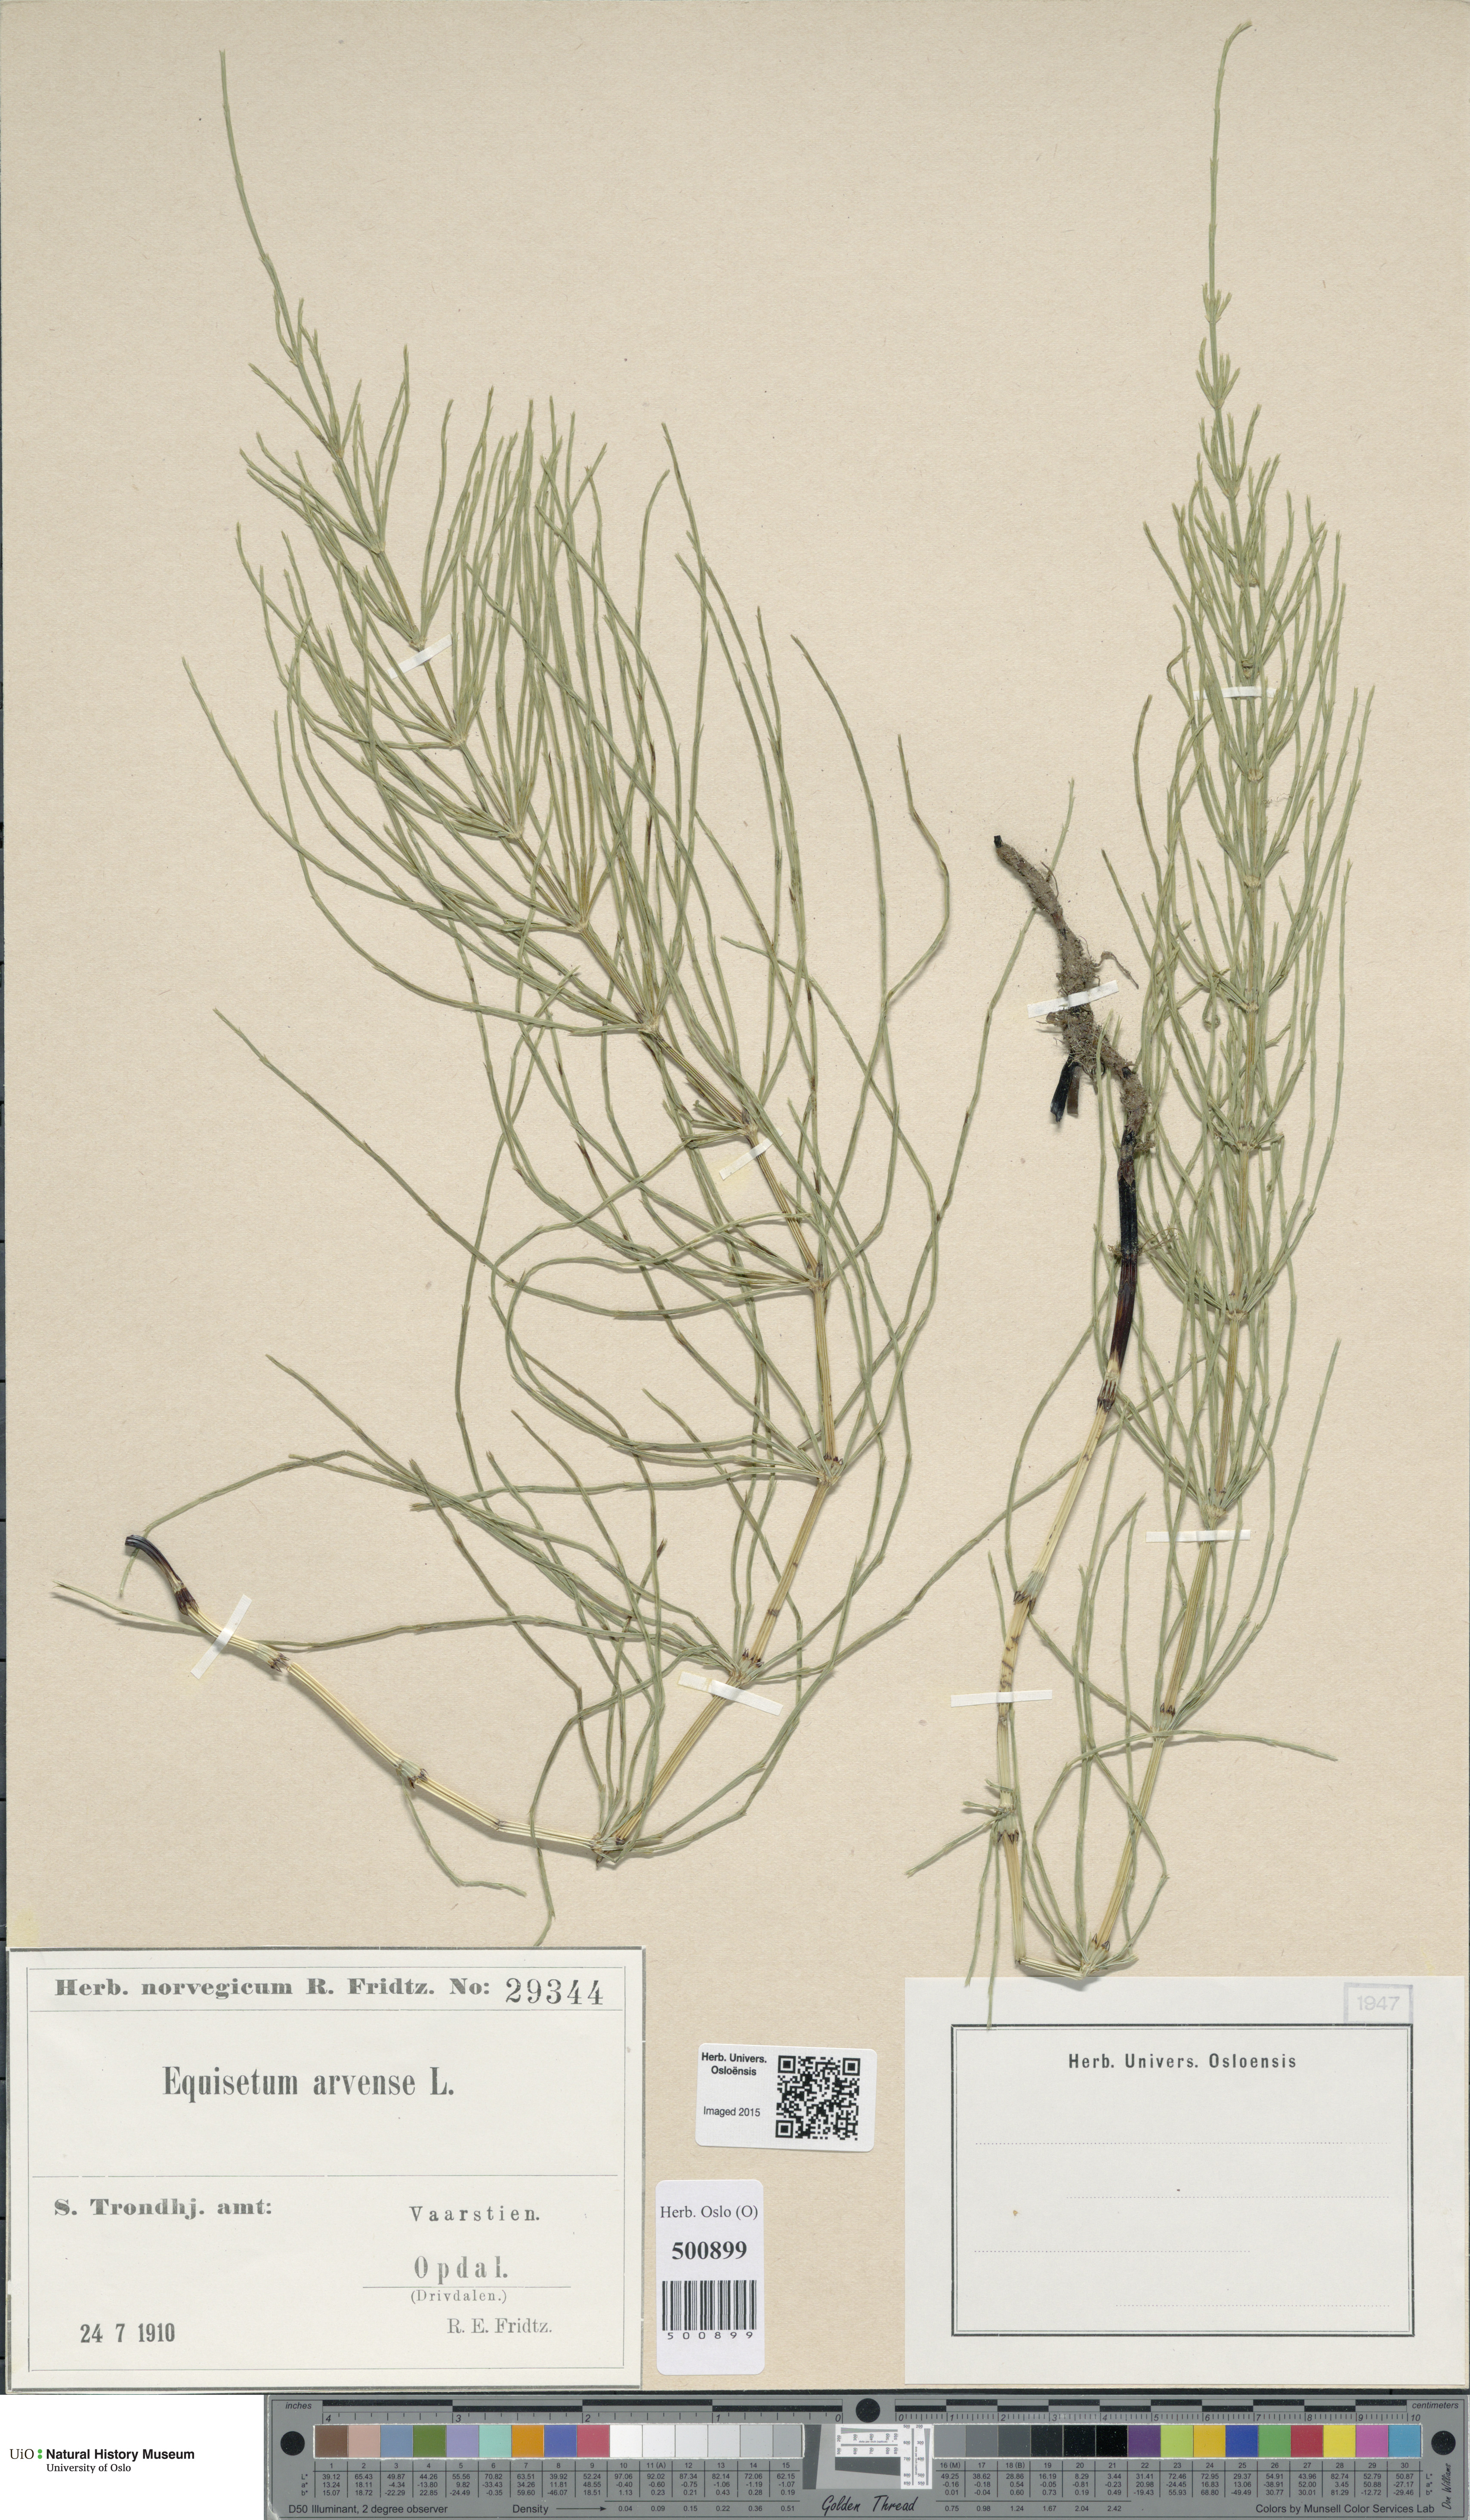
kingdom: Plantae
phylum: Tracheophyta
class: Polypodiopsida
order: Equisetales
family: Equisetaceae
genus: Equisetum
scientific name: Equisetum arvense
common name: Field horsetail
